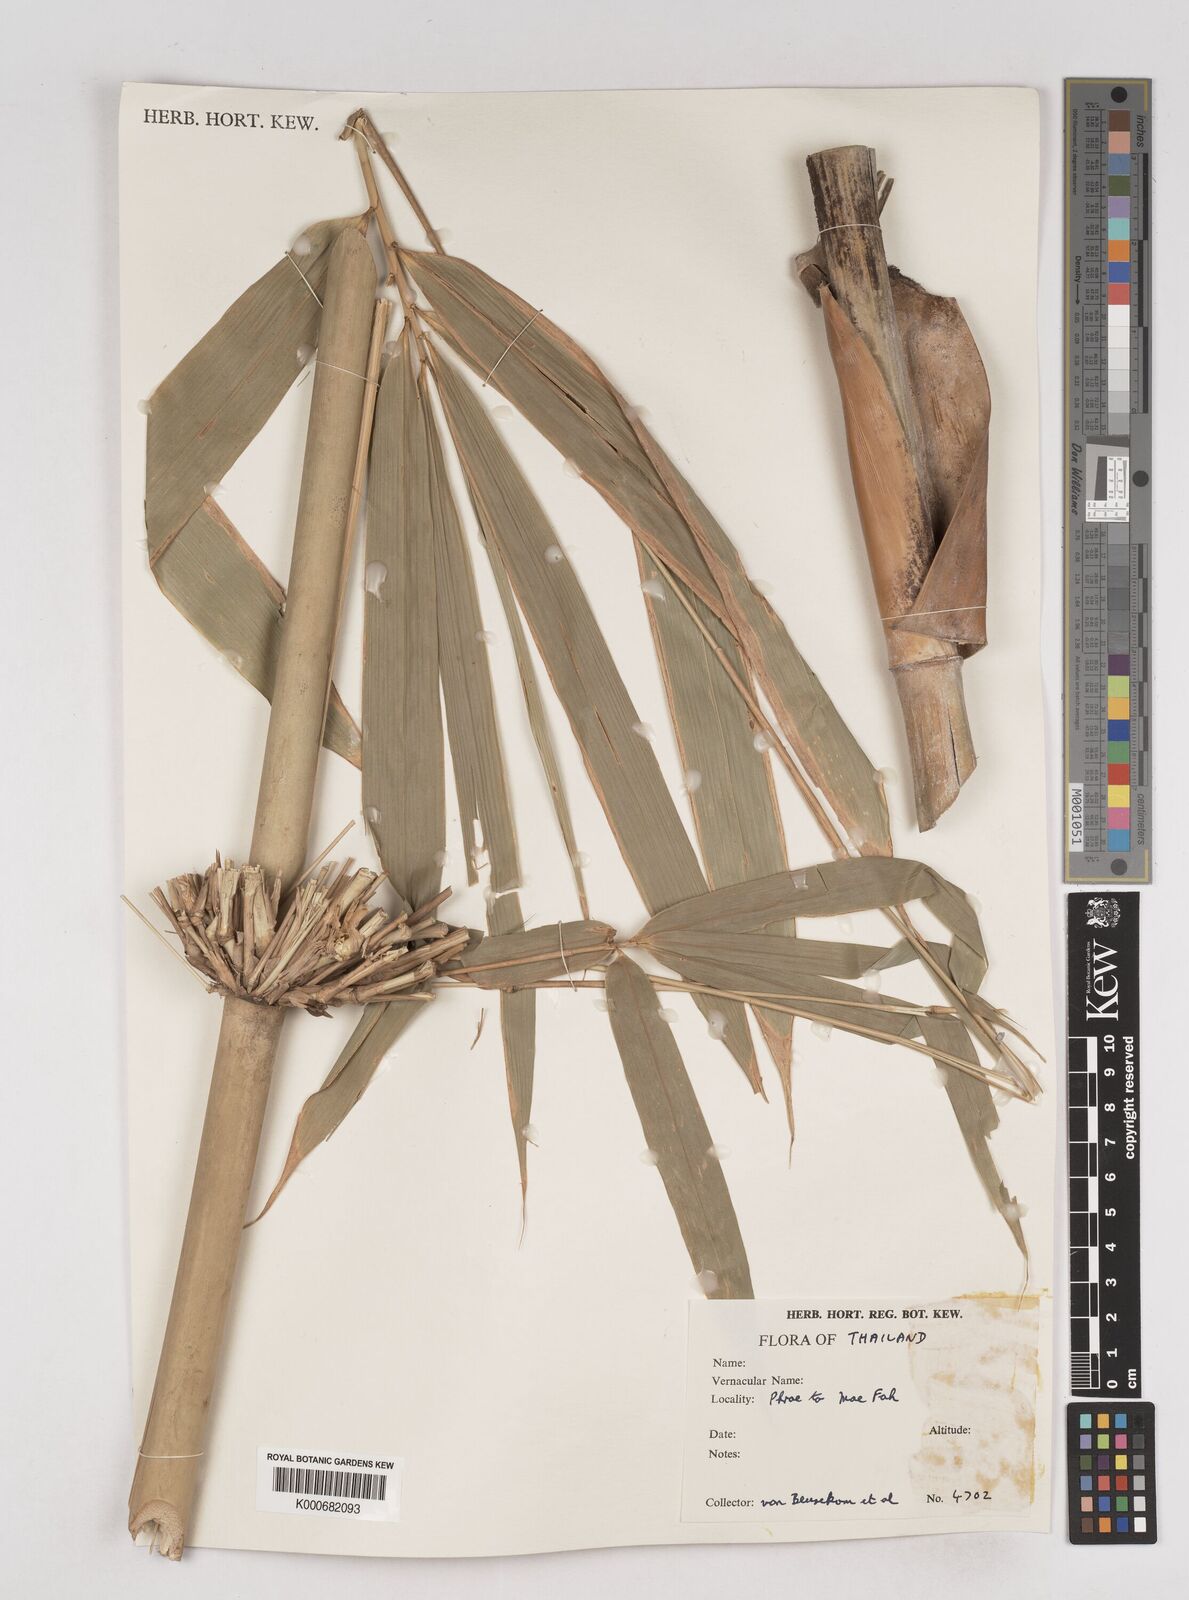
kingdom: Plantae
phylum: Tracheophyta
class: Liliopsida
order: Poales
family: Poaceae
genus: Schizostachyum
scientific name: Schizostachyum
